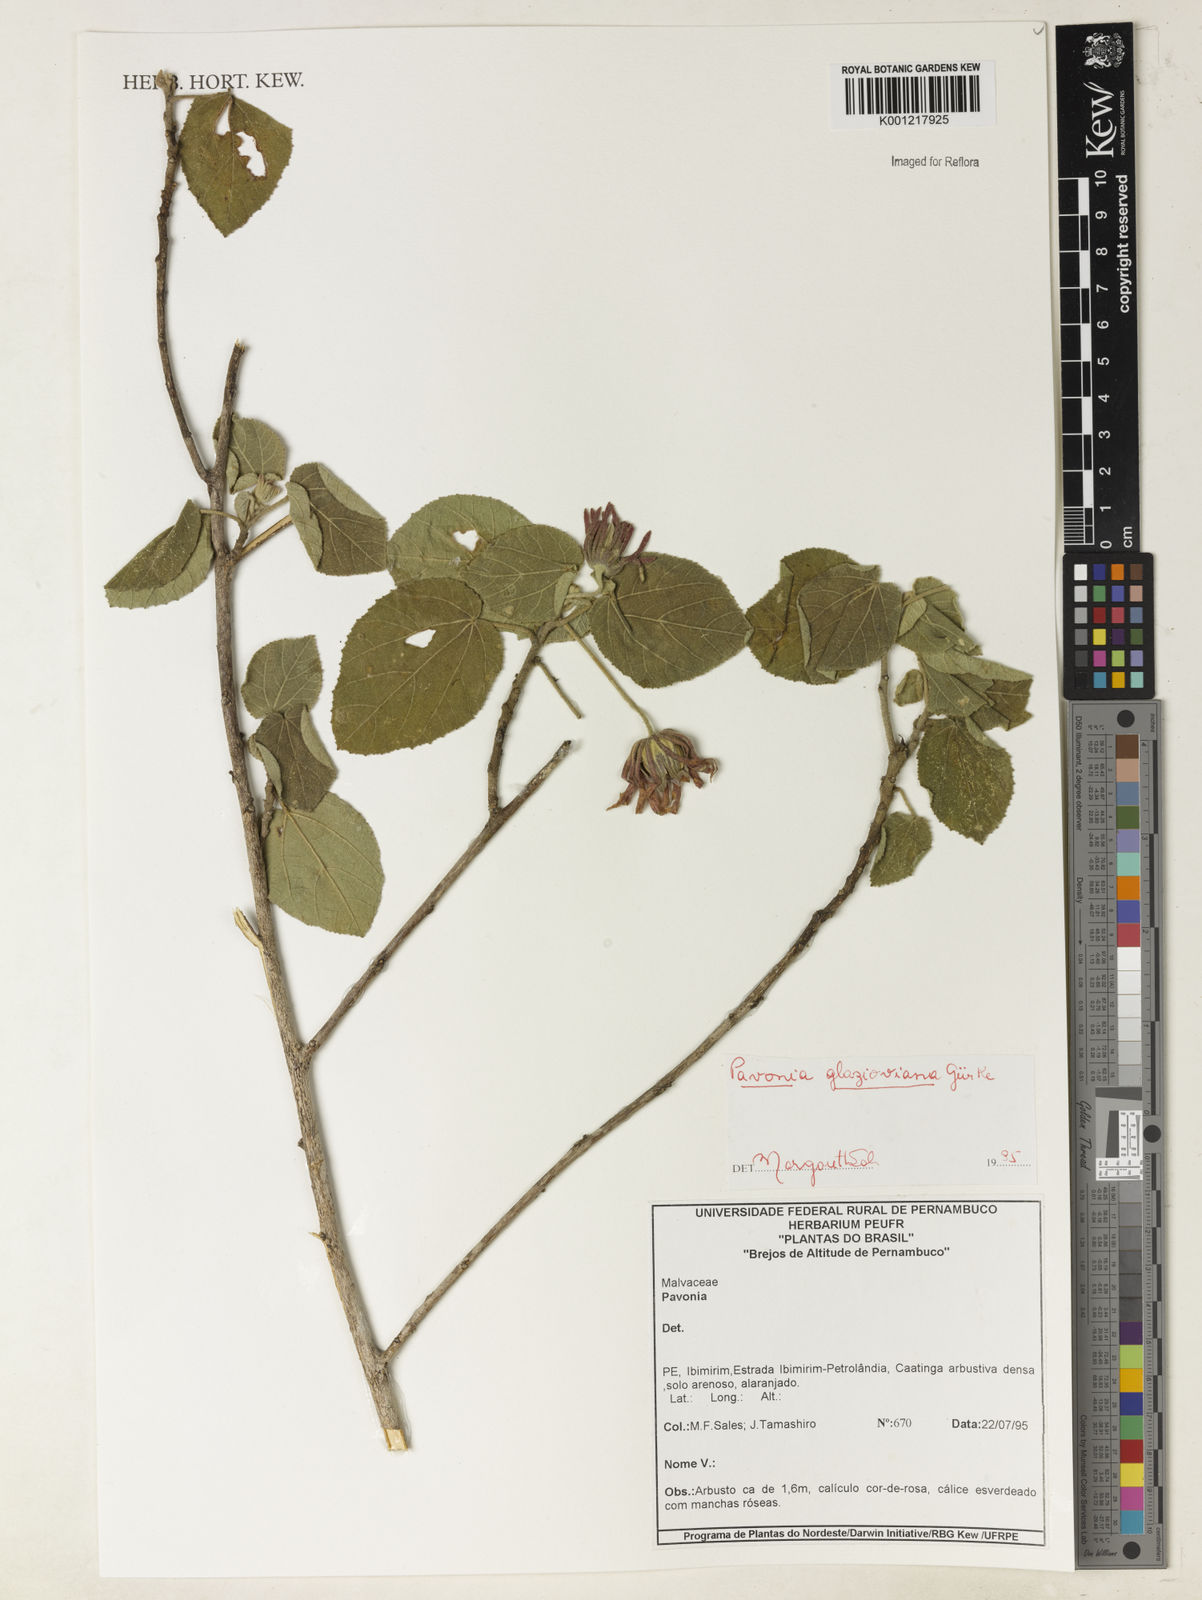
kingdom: Plantae
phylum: Tracheophyta
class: Magnoliopsida
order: Malvales
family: Malvaceae
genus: Pavonia
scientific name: Pavonia
